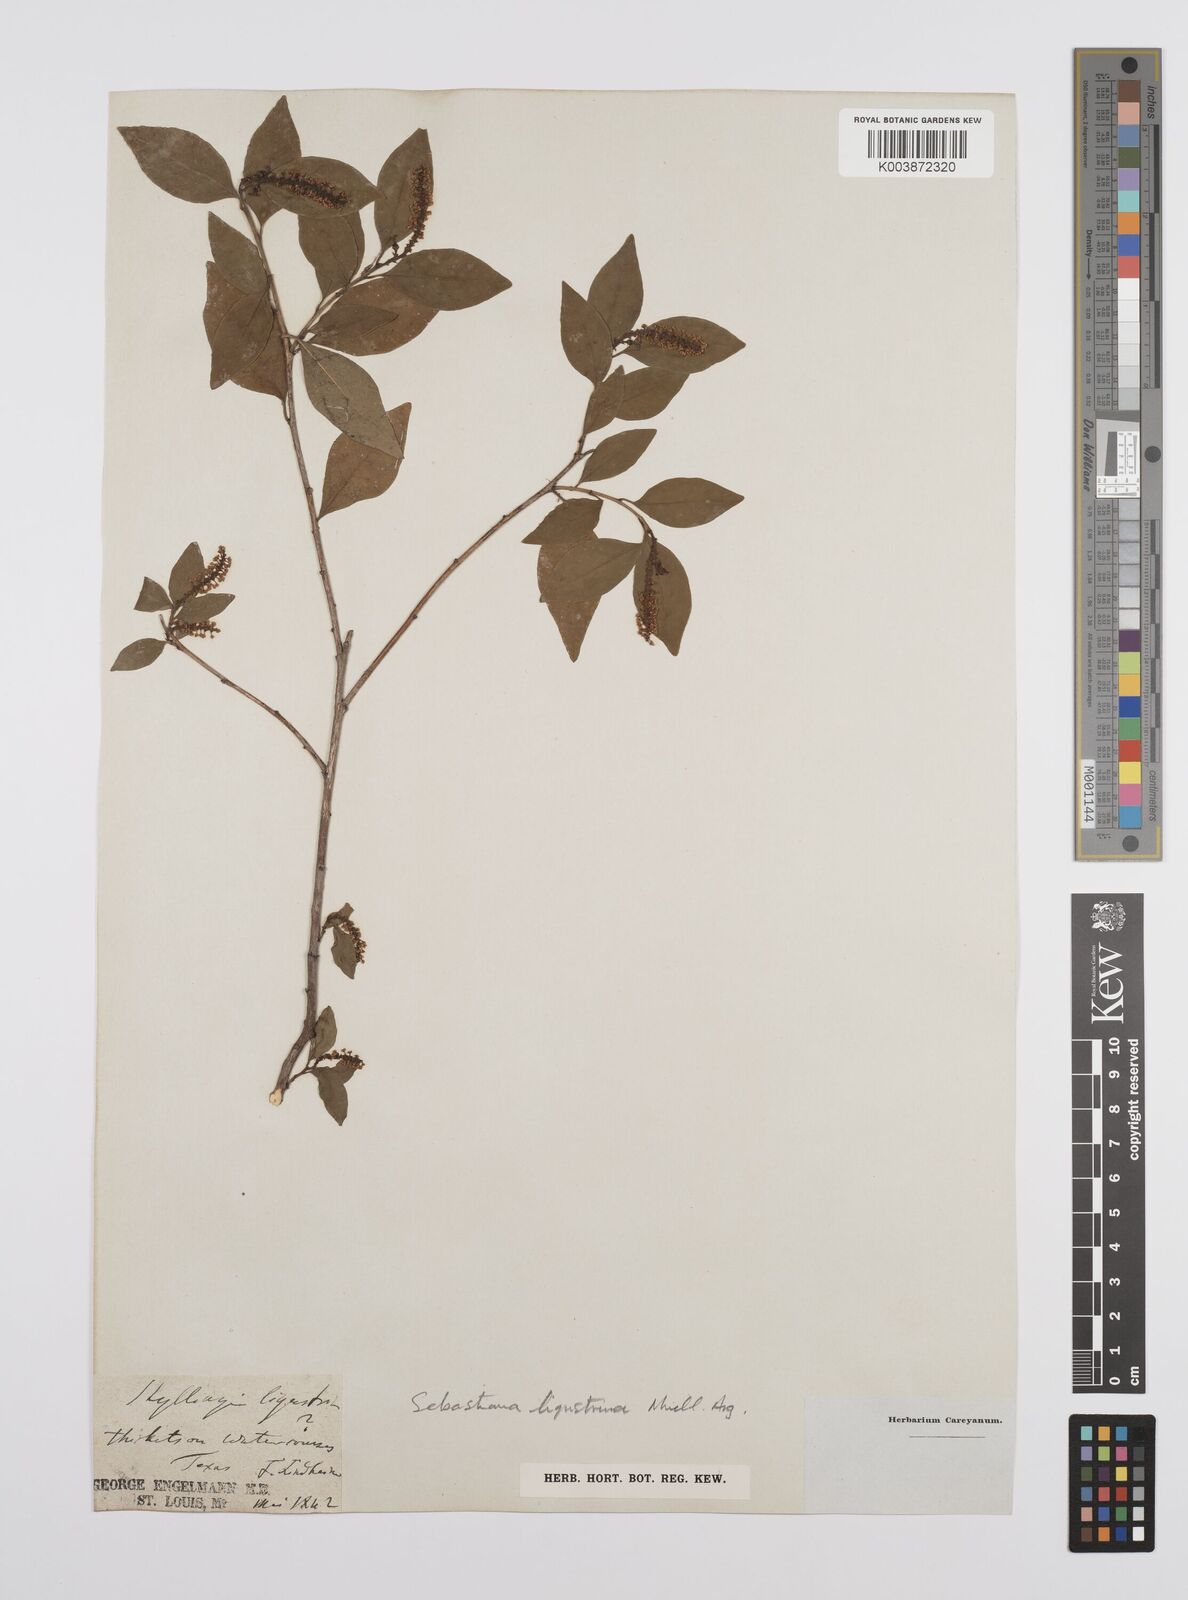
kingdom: Plantae
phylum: Tracheophyta
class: Magnoliopsida
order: Malpighiales
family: Euphorbiaceae
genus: Ditrysinia
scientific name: Ditrysinia fruticosa
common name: Gulf sebastian-bush
